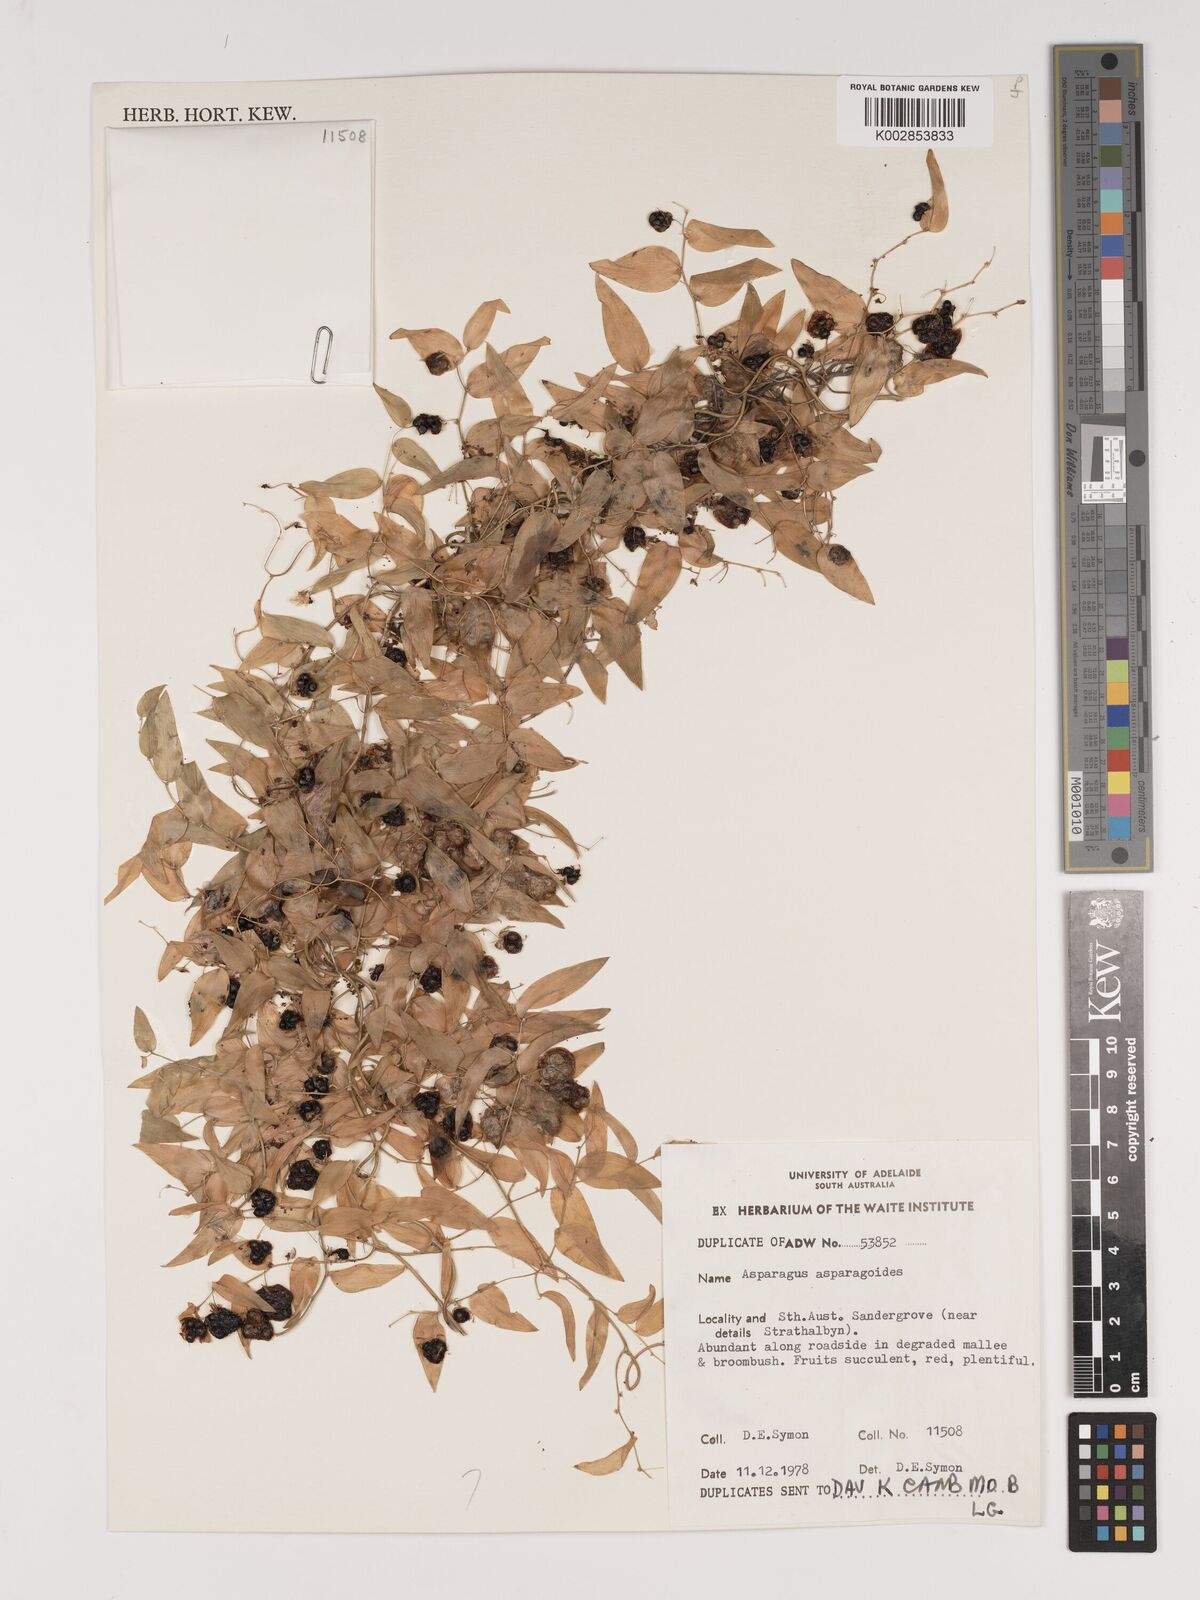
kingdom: Plantae
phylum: Tracheophyta
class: Liliopsida
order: Asparagales
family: Asparagaceae
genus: Asparagus
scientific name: Asparagus asparagoides
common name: African asparagus fern
